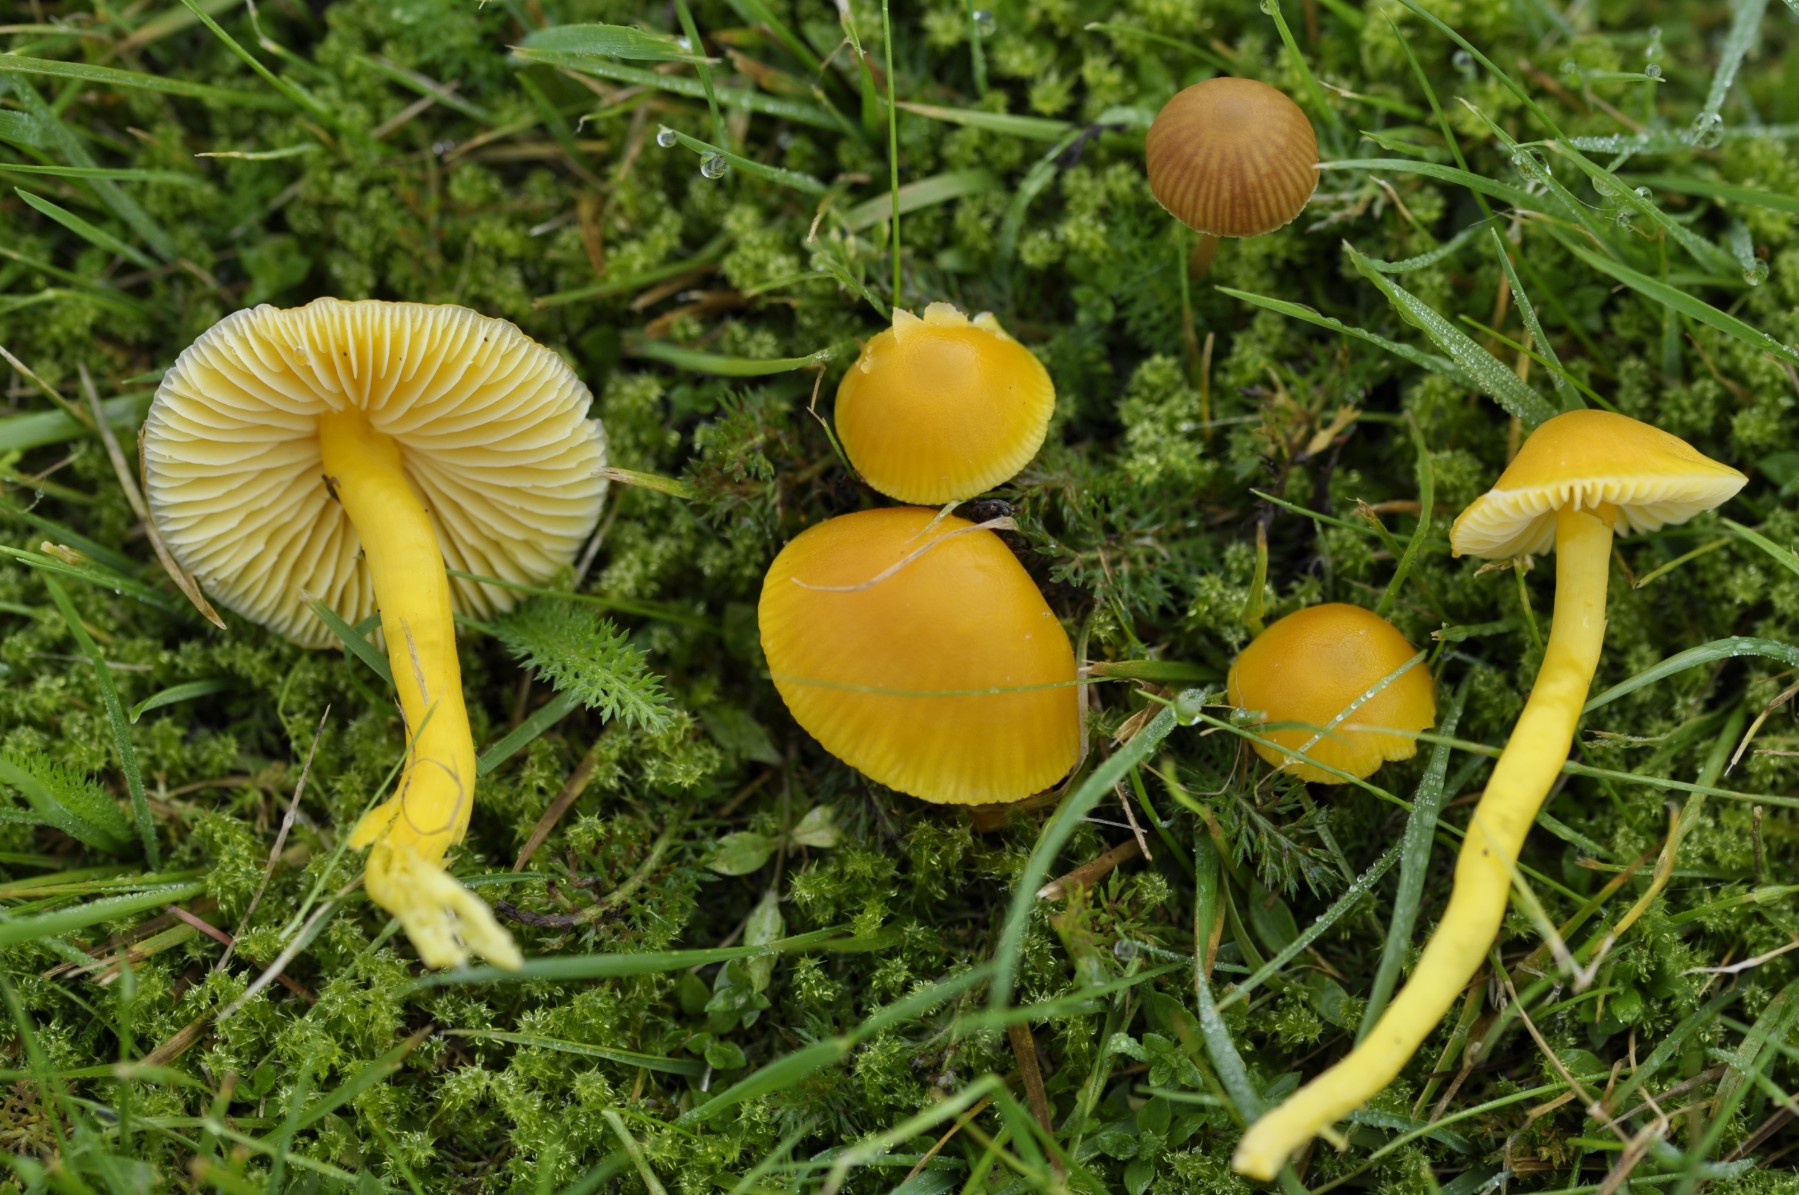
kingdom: Fungi
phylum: Basidiomycota
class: Agaricomycetes
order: Agaricales
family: Hygrophoraceae
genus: Hygrocybe
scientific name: Hygrocybe ceracea
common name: voksgul vokshat
